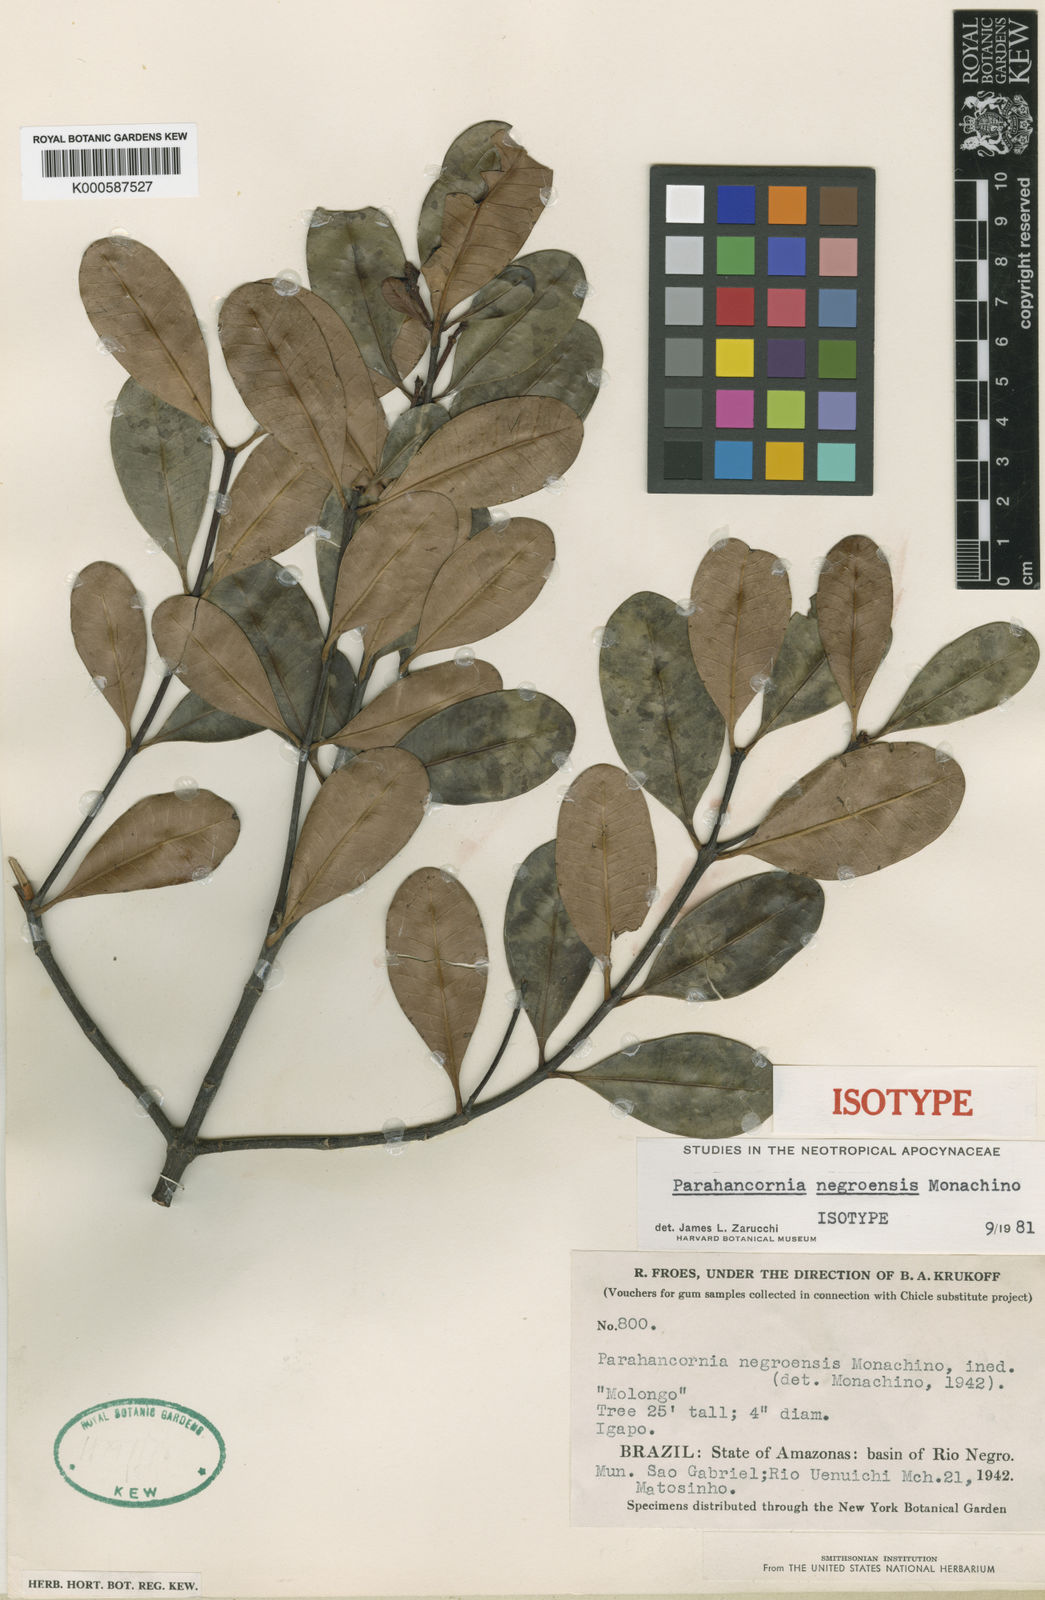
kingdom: Plantae
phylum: Tracheophyta
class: Magnoliopsida
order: Gentianales
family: Apocynaceae
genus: Parahancornia
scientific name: Parahancornia negroensis
